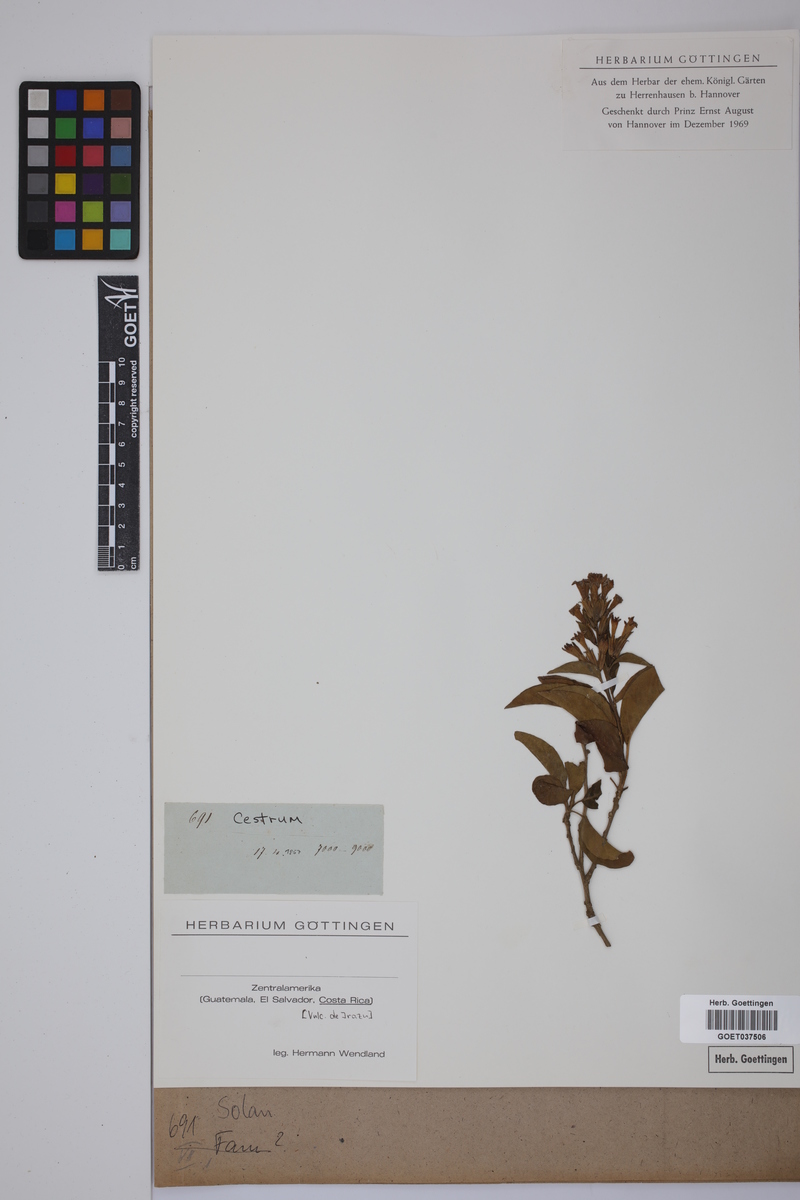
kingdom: Plantae
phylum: Tracheophyta
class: Magnoliopsida
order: Solanales
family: Solanaceae
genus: Cestrum
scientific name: Cestrum
